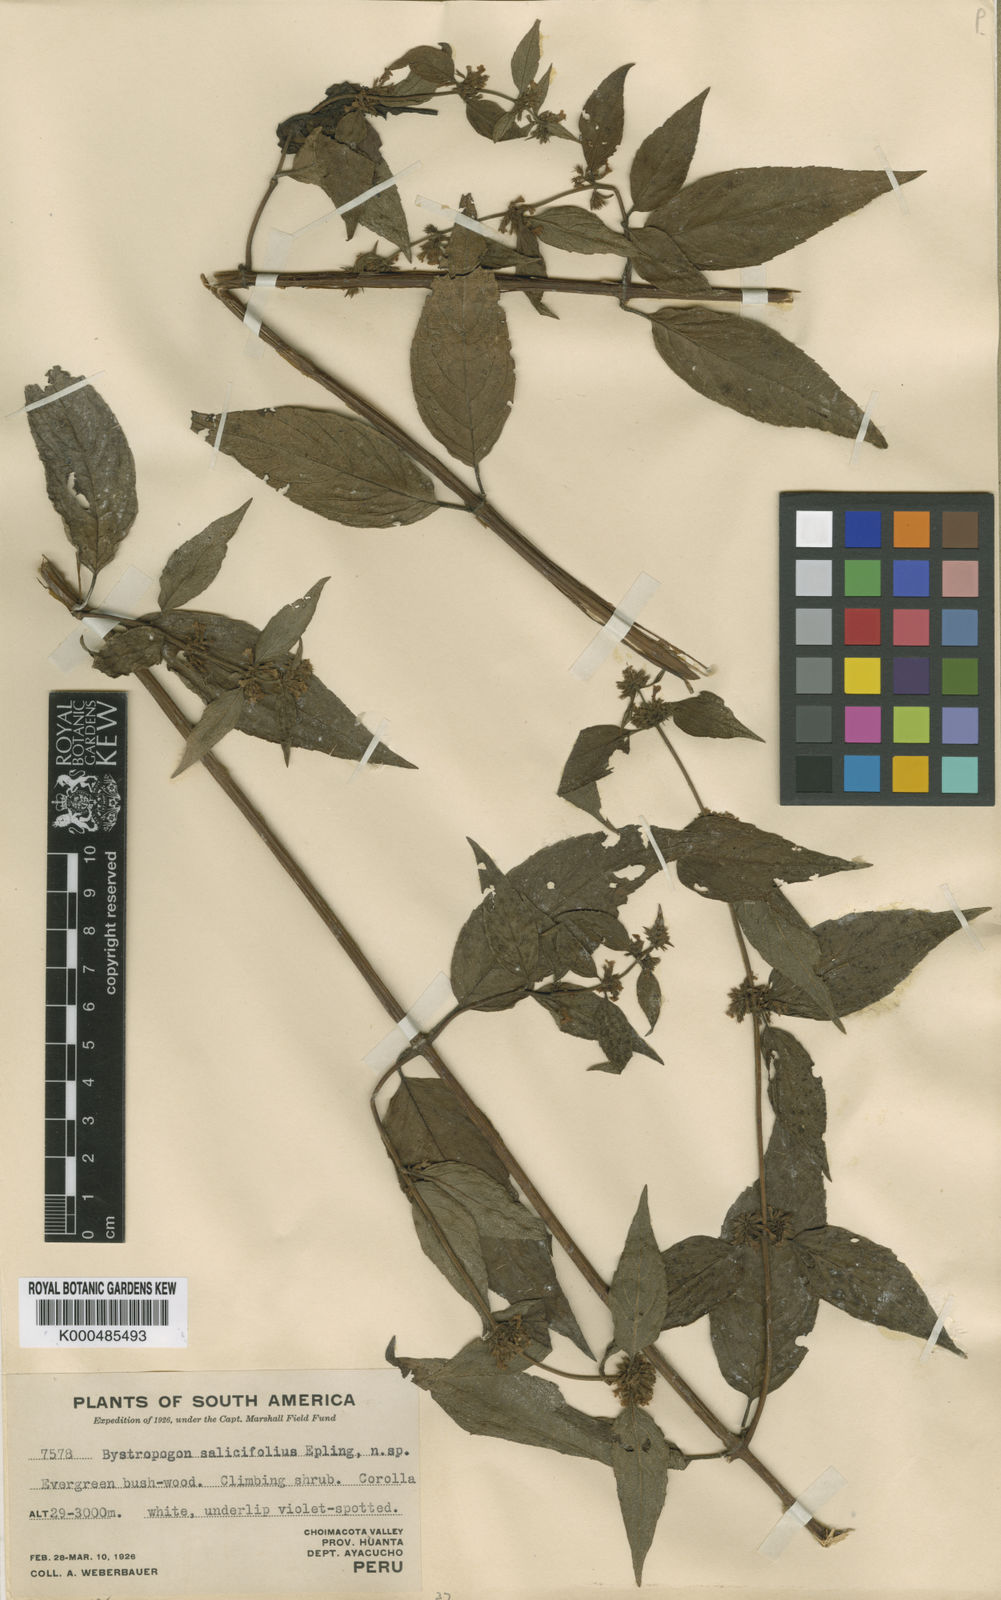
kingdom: Plantae
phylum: Tracheophyta
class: Magnoliopsida
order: Lamiales
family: Lamiaceae
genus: Minthostachys
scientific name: Minthostachys salicifolia
